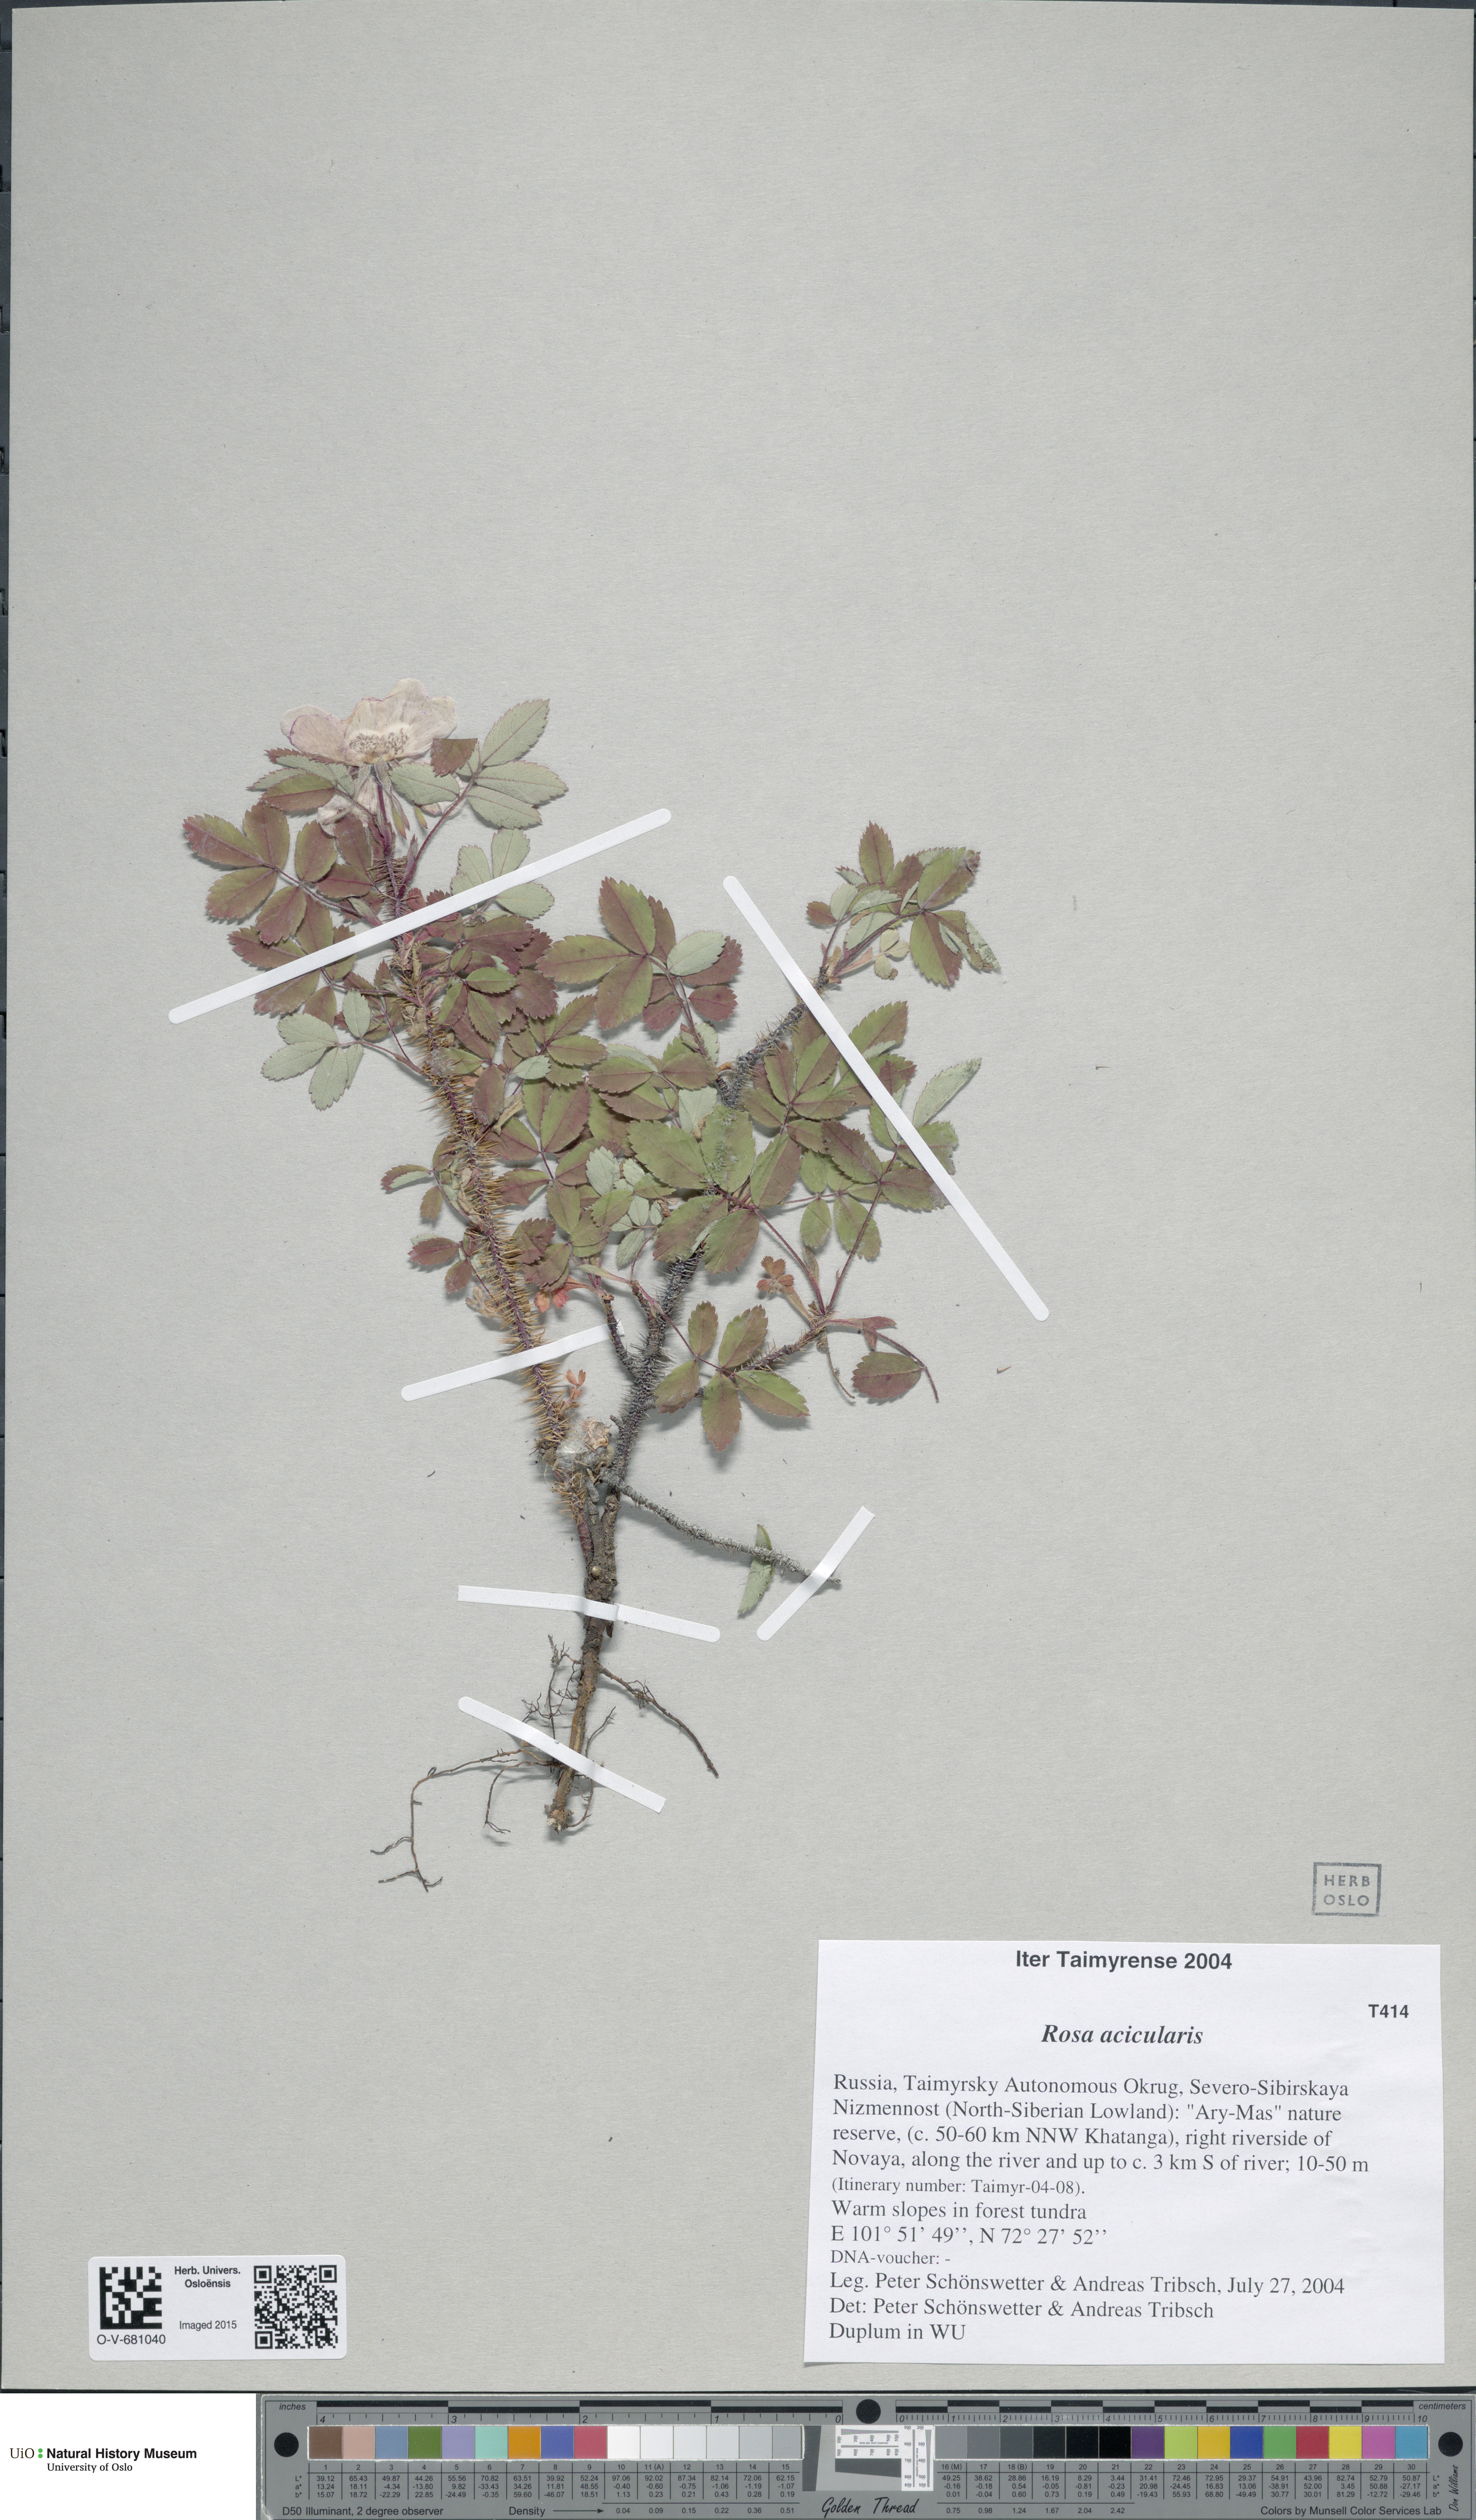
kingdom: Plantae
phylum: Tracheophyta
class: Magnoliopsida
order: Rosales
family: Rosaceae
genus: Rosa
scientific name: Rosa acicularis
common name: Prickly rose
